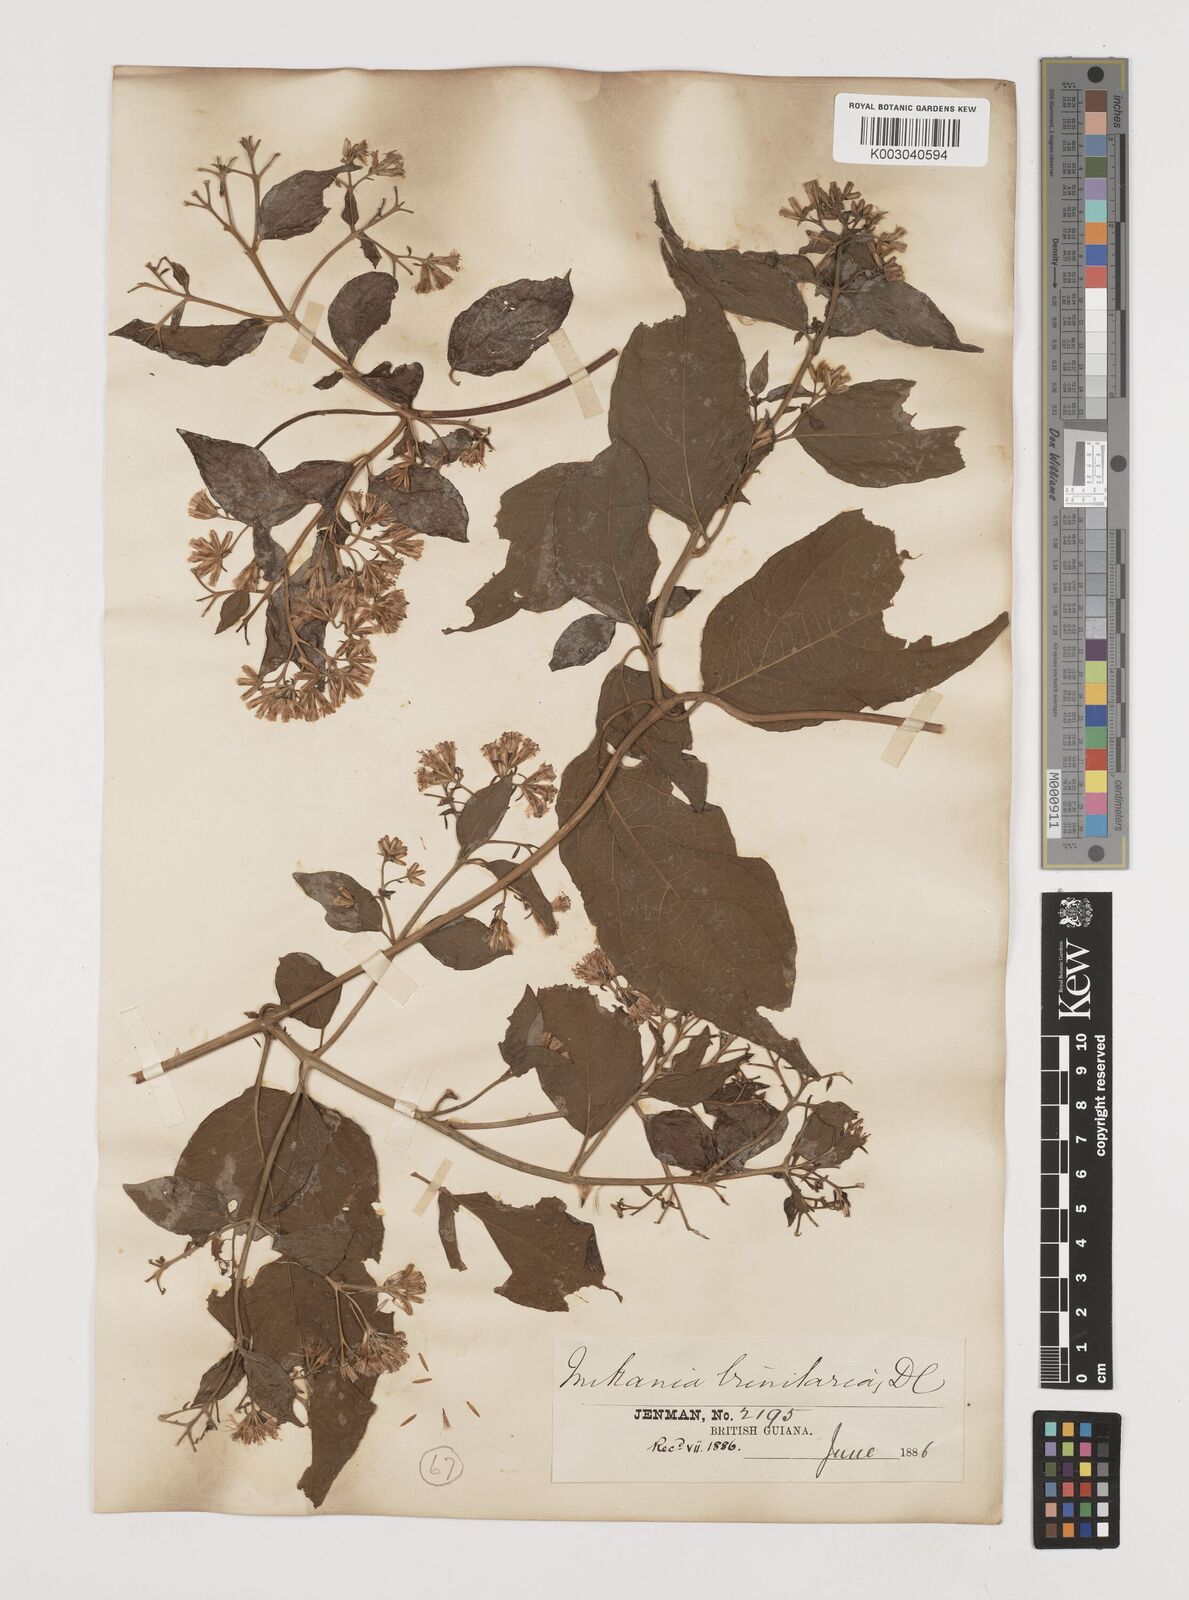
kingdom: Plantae
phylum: Tracheophyta
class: Magnoliopsida
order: Asterales
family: Asteraceae
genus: Mikania
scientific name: Mikania trinitaria
